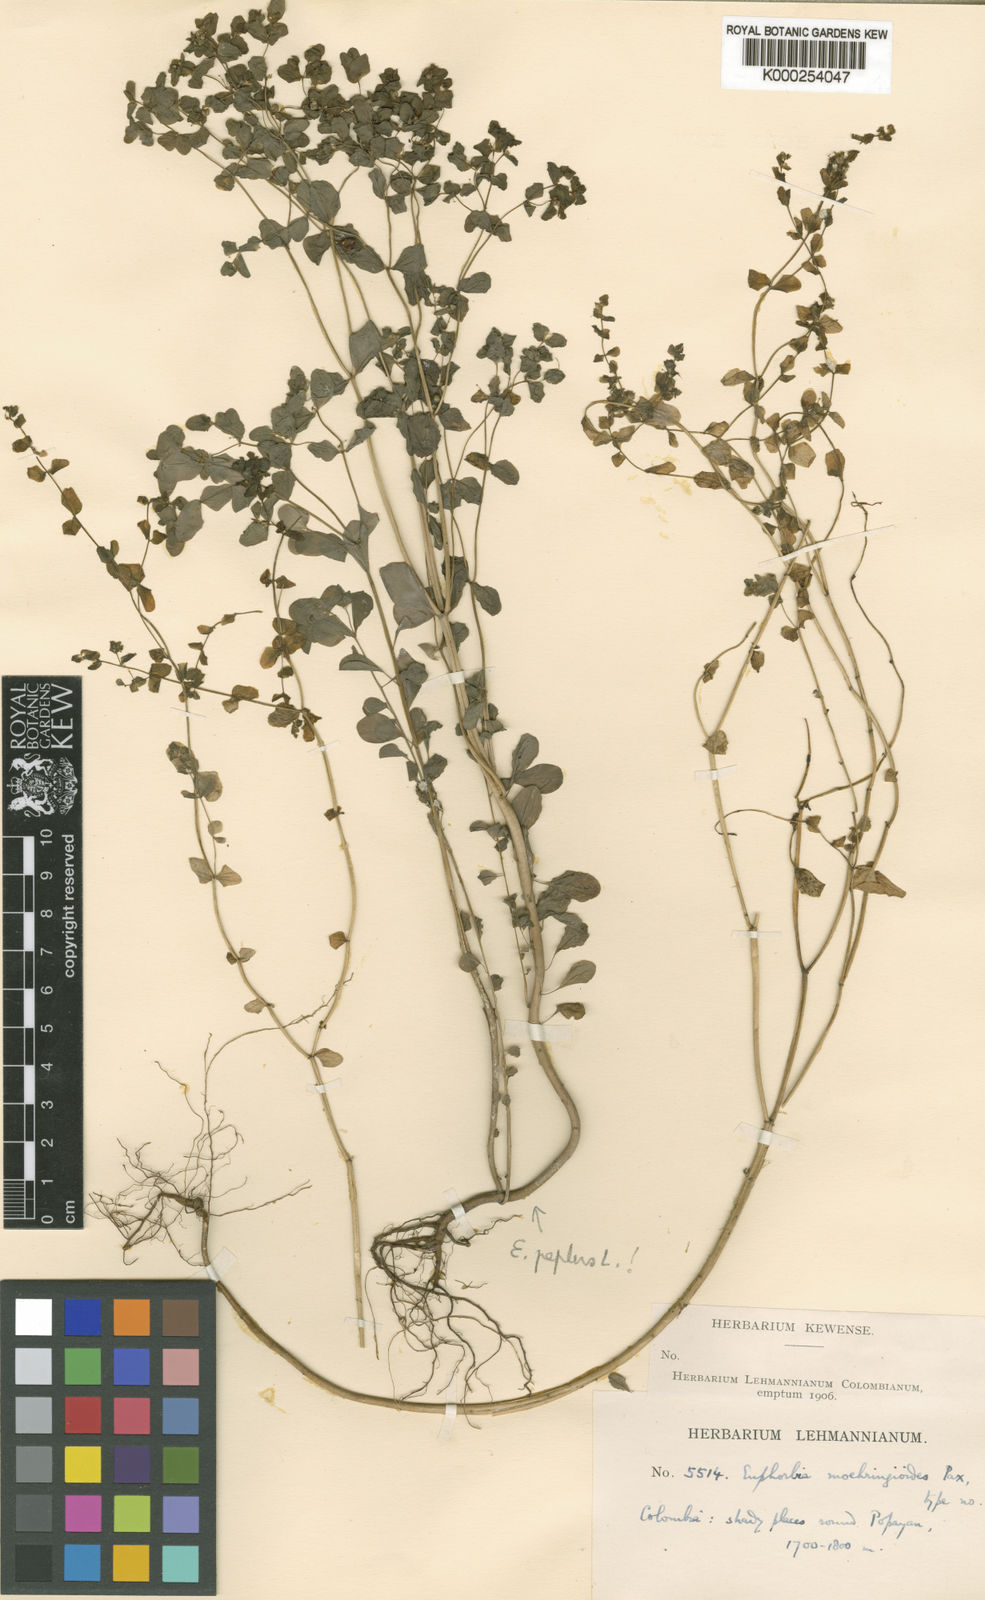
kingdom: Plantae
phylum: Tracheophyta
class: Magnoliopsida
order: Malpighiales
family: Euphorbiaceae
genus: Euphorbia
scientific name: Euphorbia peplus
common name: Petty spurge
